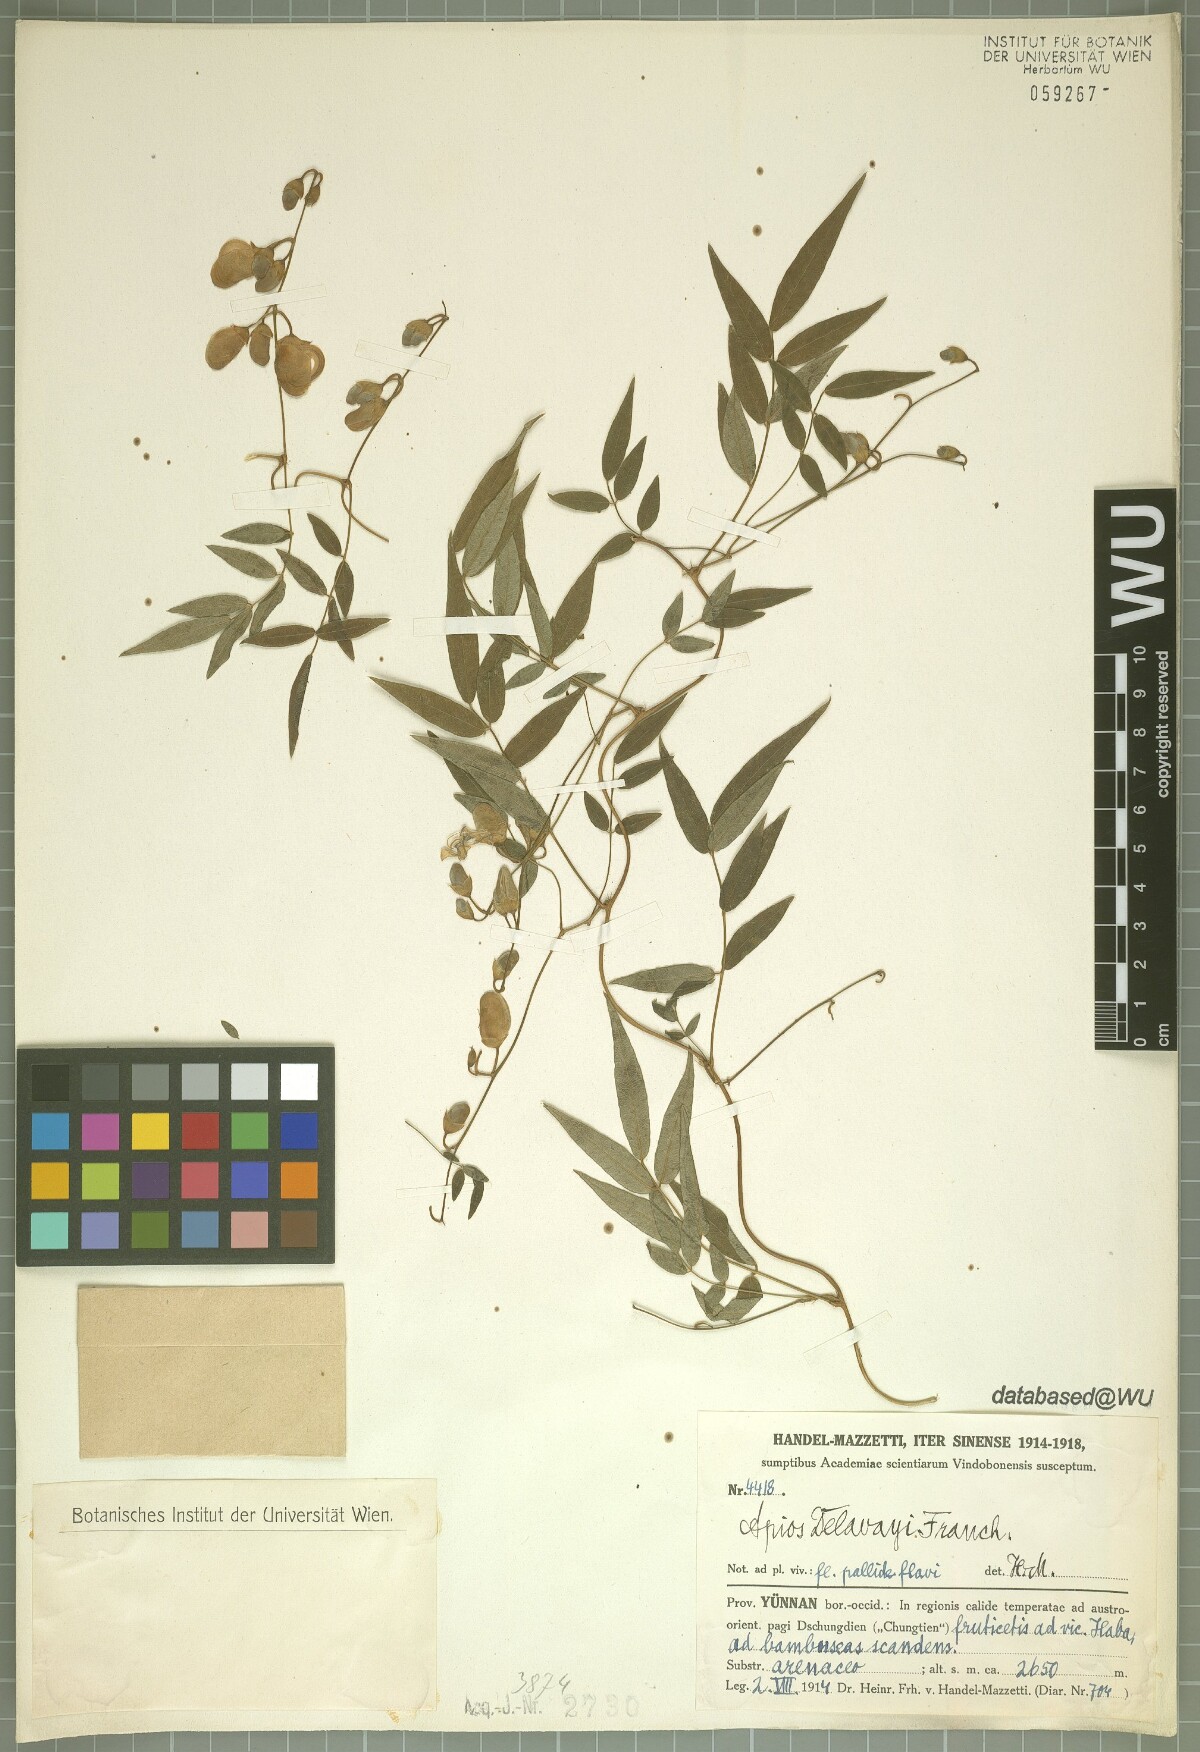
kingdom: Plantae
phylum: Tracheophyta
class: Magnoliopsida
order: Fabales
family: Fabaceae
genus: Apios
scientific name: Apios delavayi
